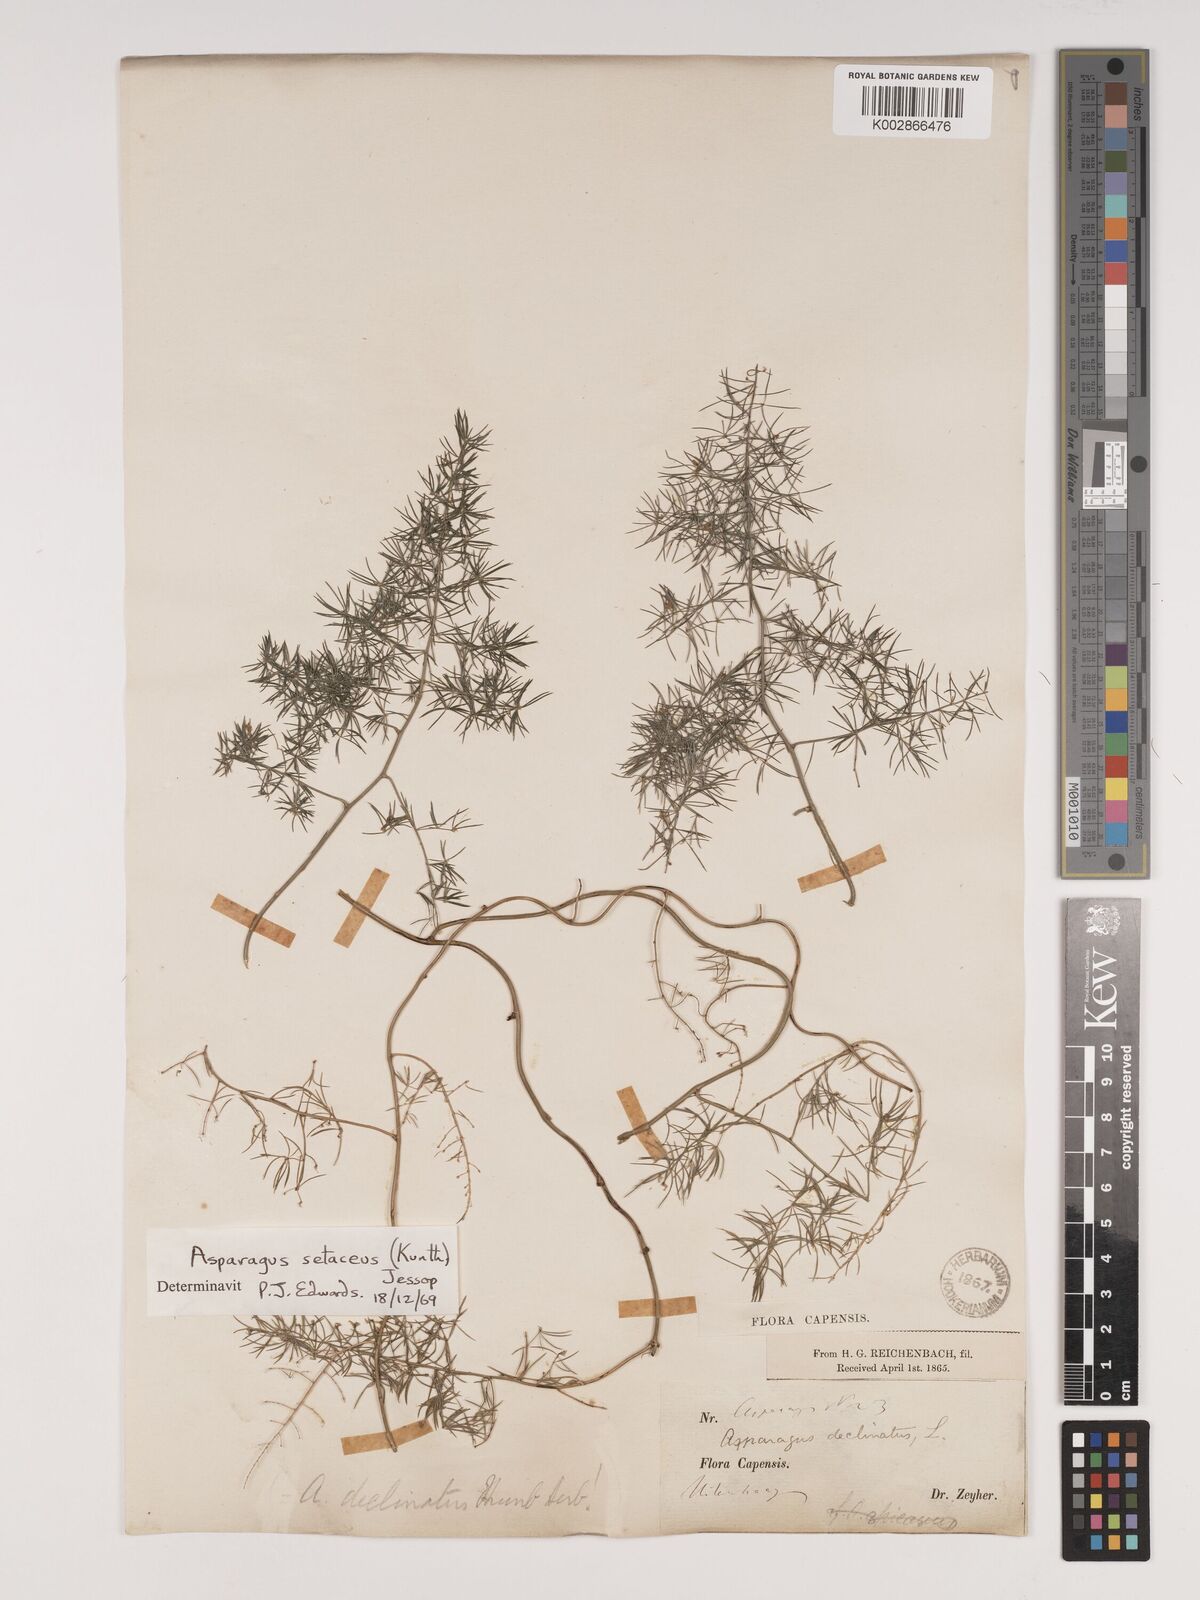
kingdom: Plantae
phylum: Tracheophyta
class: Liliopsida
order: Asparagales
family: Asparagaceae
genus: Asparagus
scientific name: Asparagus setaceus
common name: Common asparagus fern
